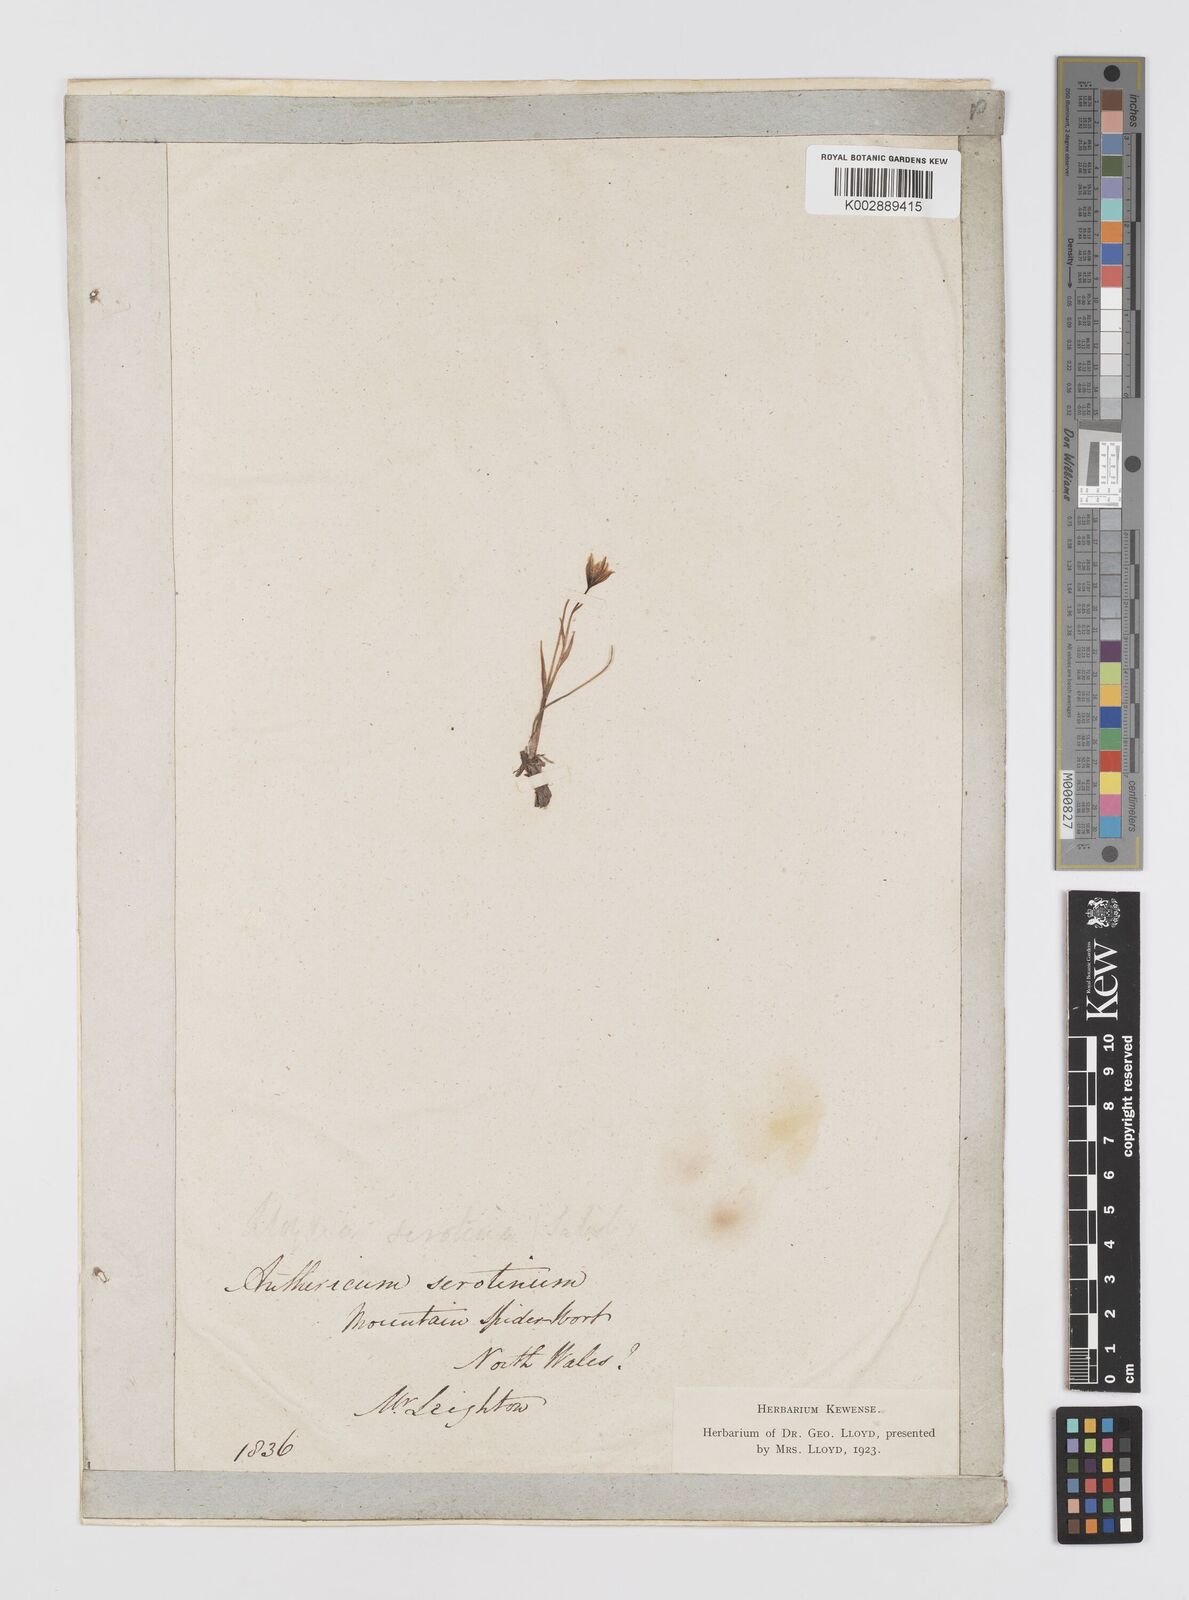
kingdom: Plantae
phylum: Tracheophyta
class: Liliopsida
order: Liliales
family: Liliaceae
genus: Gagea
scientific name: Gagea
